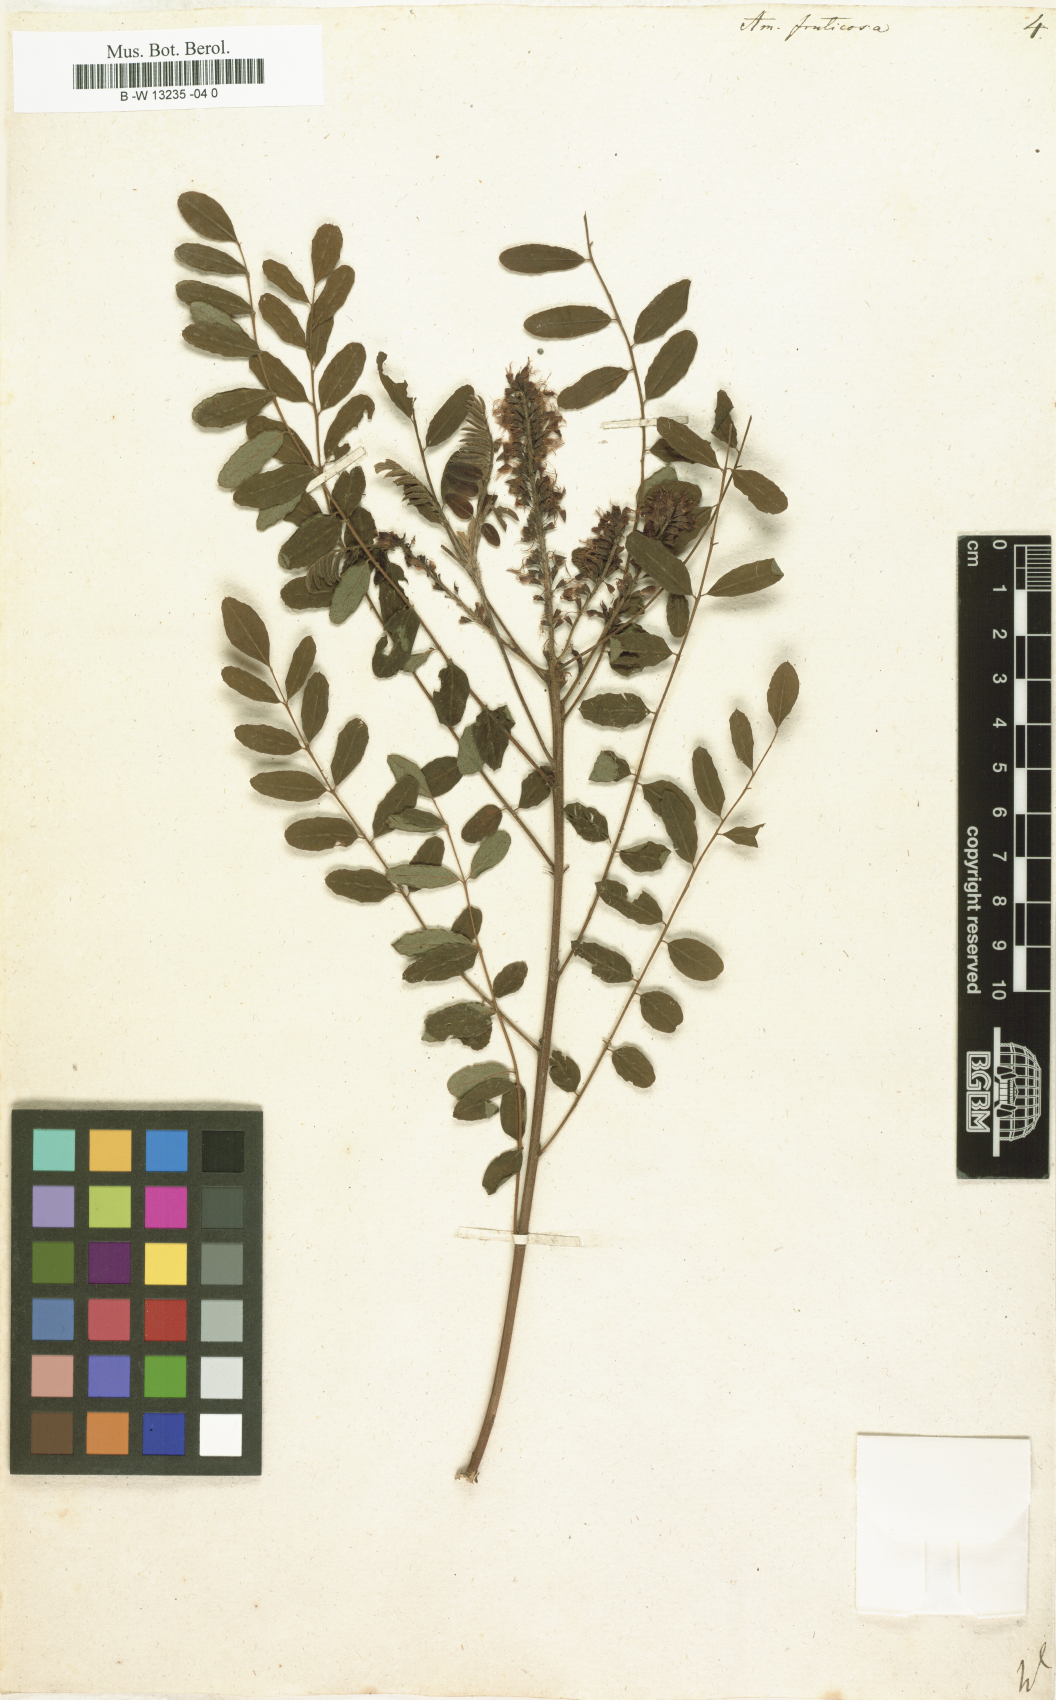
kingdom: Plantae
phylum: Tracheophyta
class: Magnoliopsida
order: Fabales
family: Fabaceae
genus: Amorpha
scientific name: Amorpha fruticosa
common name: False indigo
